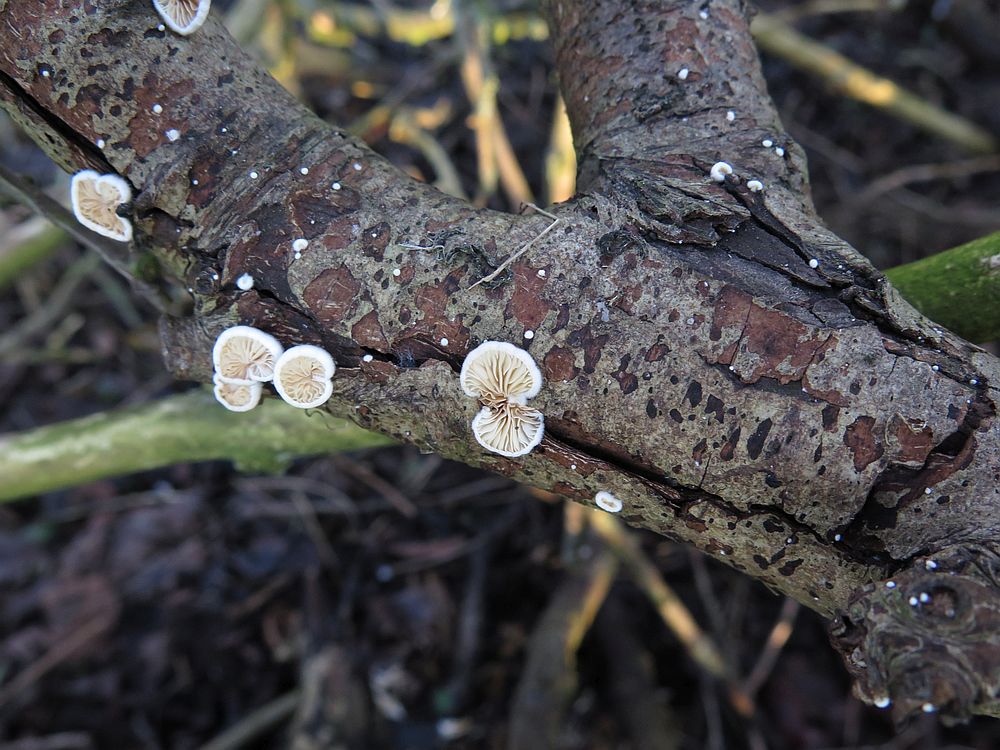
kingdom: Fungi
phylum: Basidiomycota
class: Agaricomycetes
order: Agaricales
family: Crepidotaceae
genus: Crepidotus
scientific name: Crepidotus cesatii
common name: almindelig muslingesvamp
